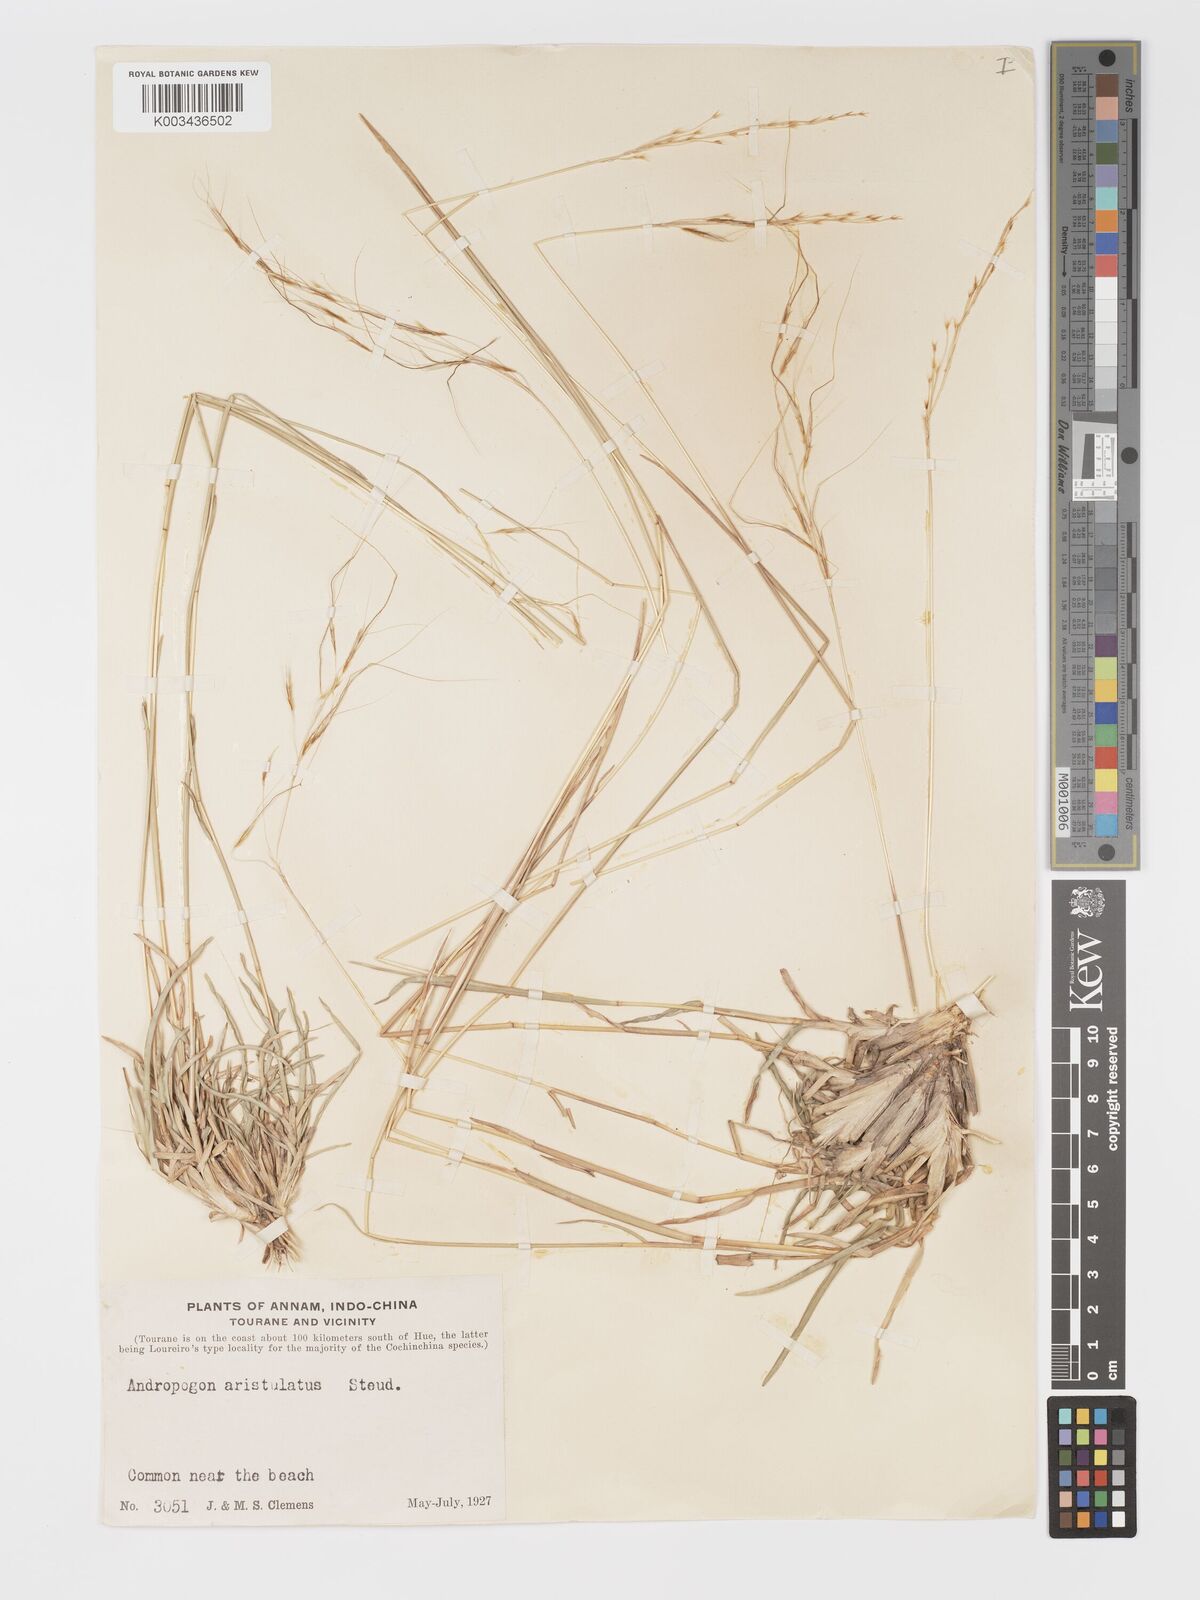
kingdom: Plantae
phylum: Tracheophyta
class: Liliopsida
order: Poales
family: Poaceae
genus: Chrysopogon
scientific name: Chrysopogon orientalis
